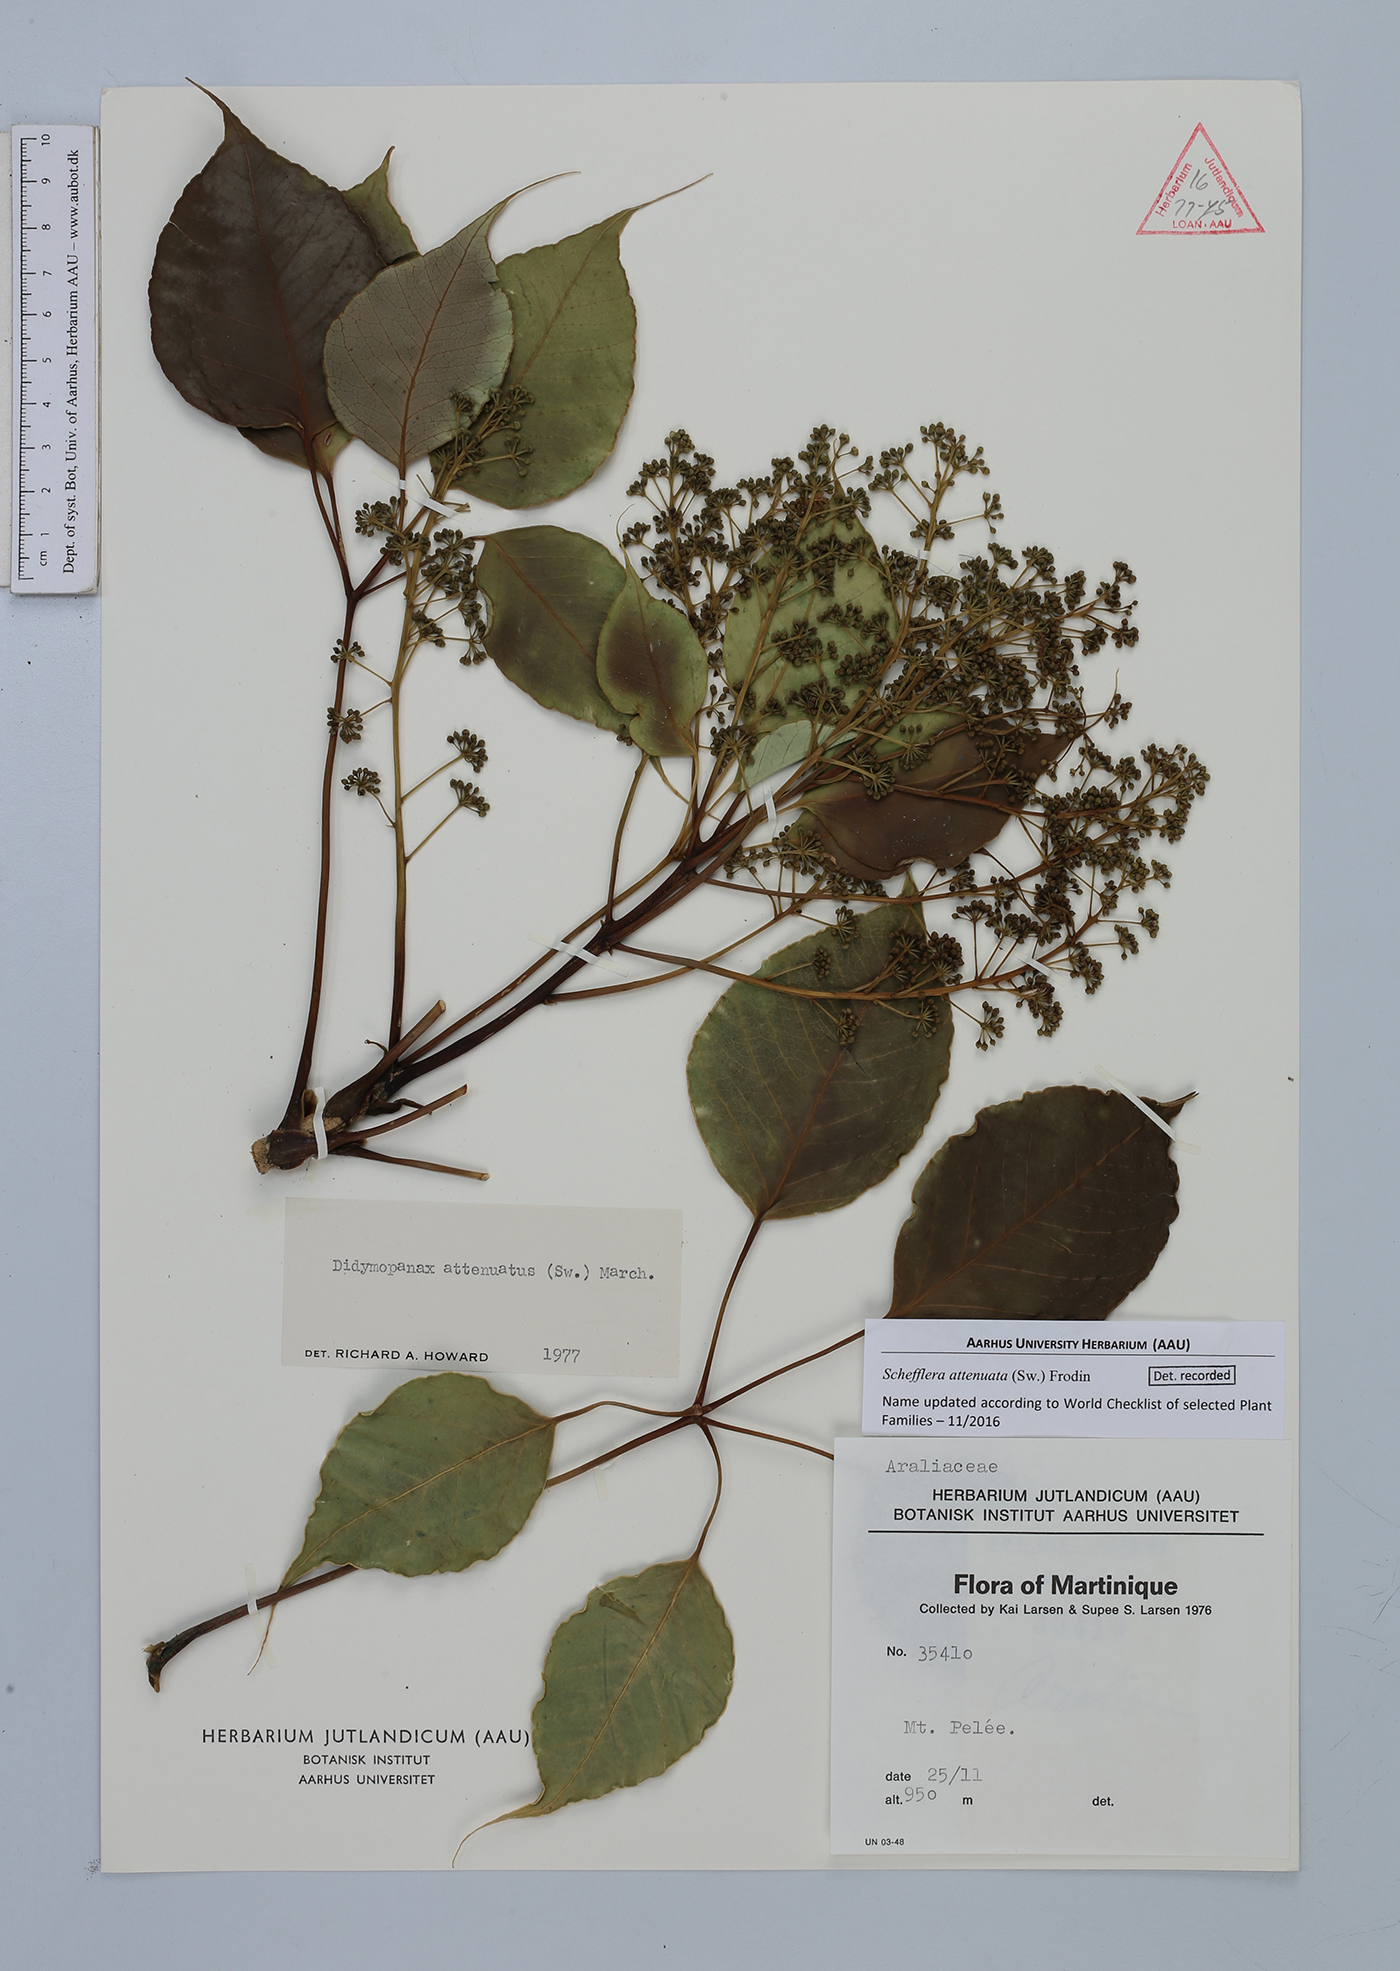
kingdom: Plantae
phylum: Tracheophyta
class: Magnoliopsida
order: Apiales
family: Araliaceae
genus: Frodinia
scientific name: Frodinia
